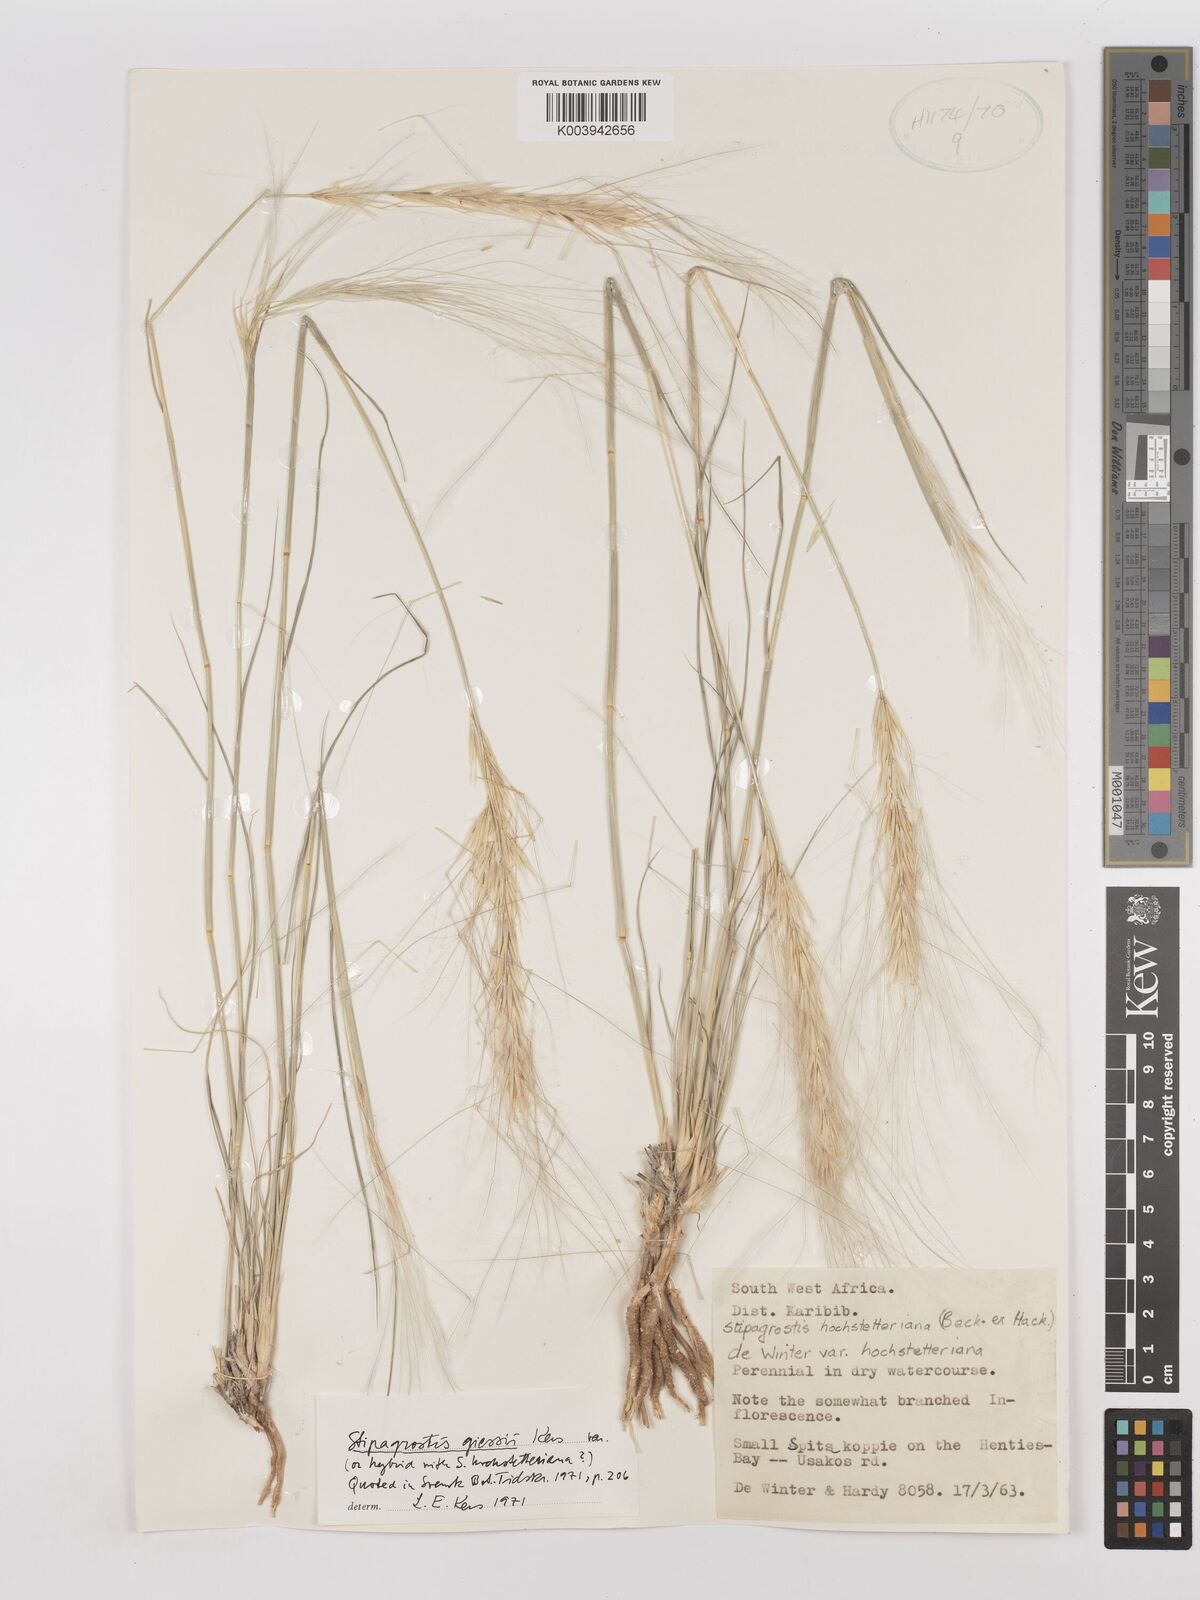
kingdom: Plantae
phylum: Tracheophyta
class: Liliopsida
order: Poales
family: Poaceae
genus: Stipagrostis
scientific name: Stipagrostis giessii
